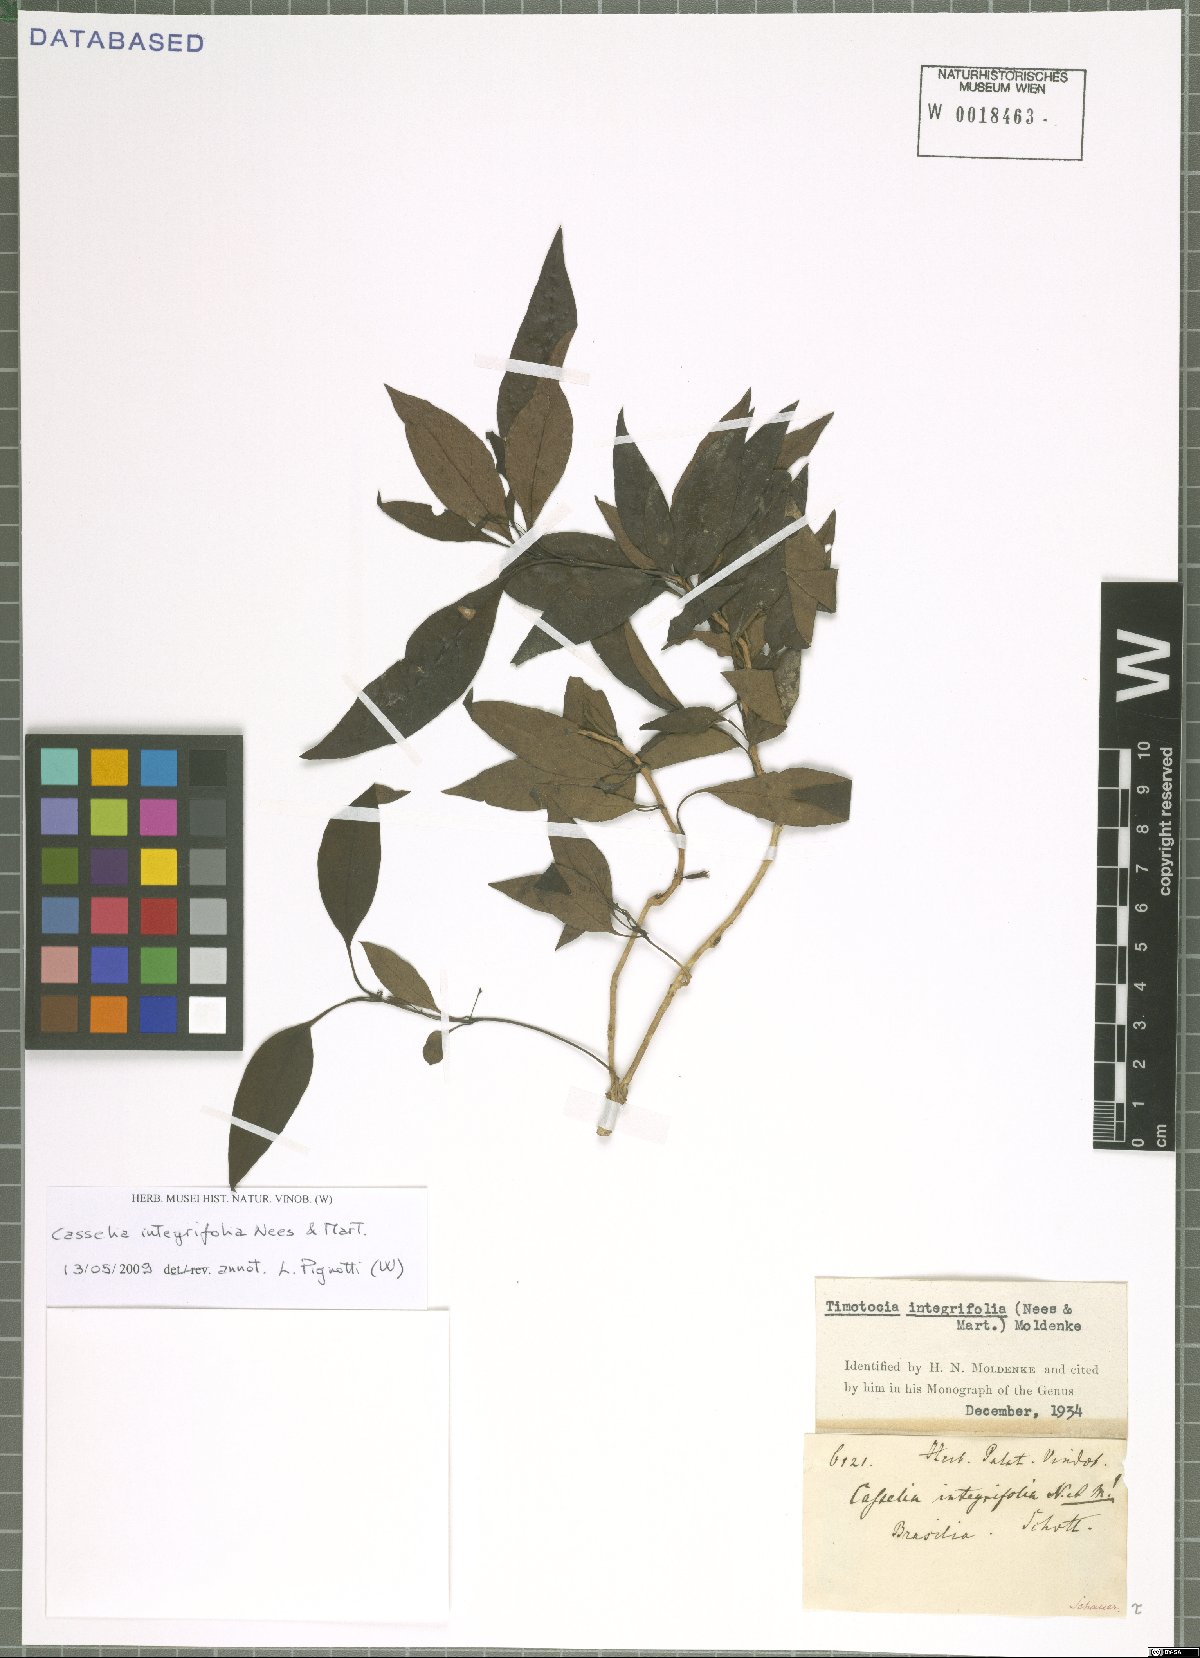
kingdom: Plantae
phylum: Tracheophyta
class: Magnoliopsida
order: Lamiales
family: Verbenaceae
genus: Casselia
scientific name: Casselia integrifolia
